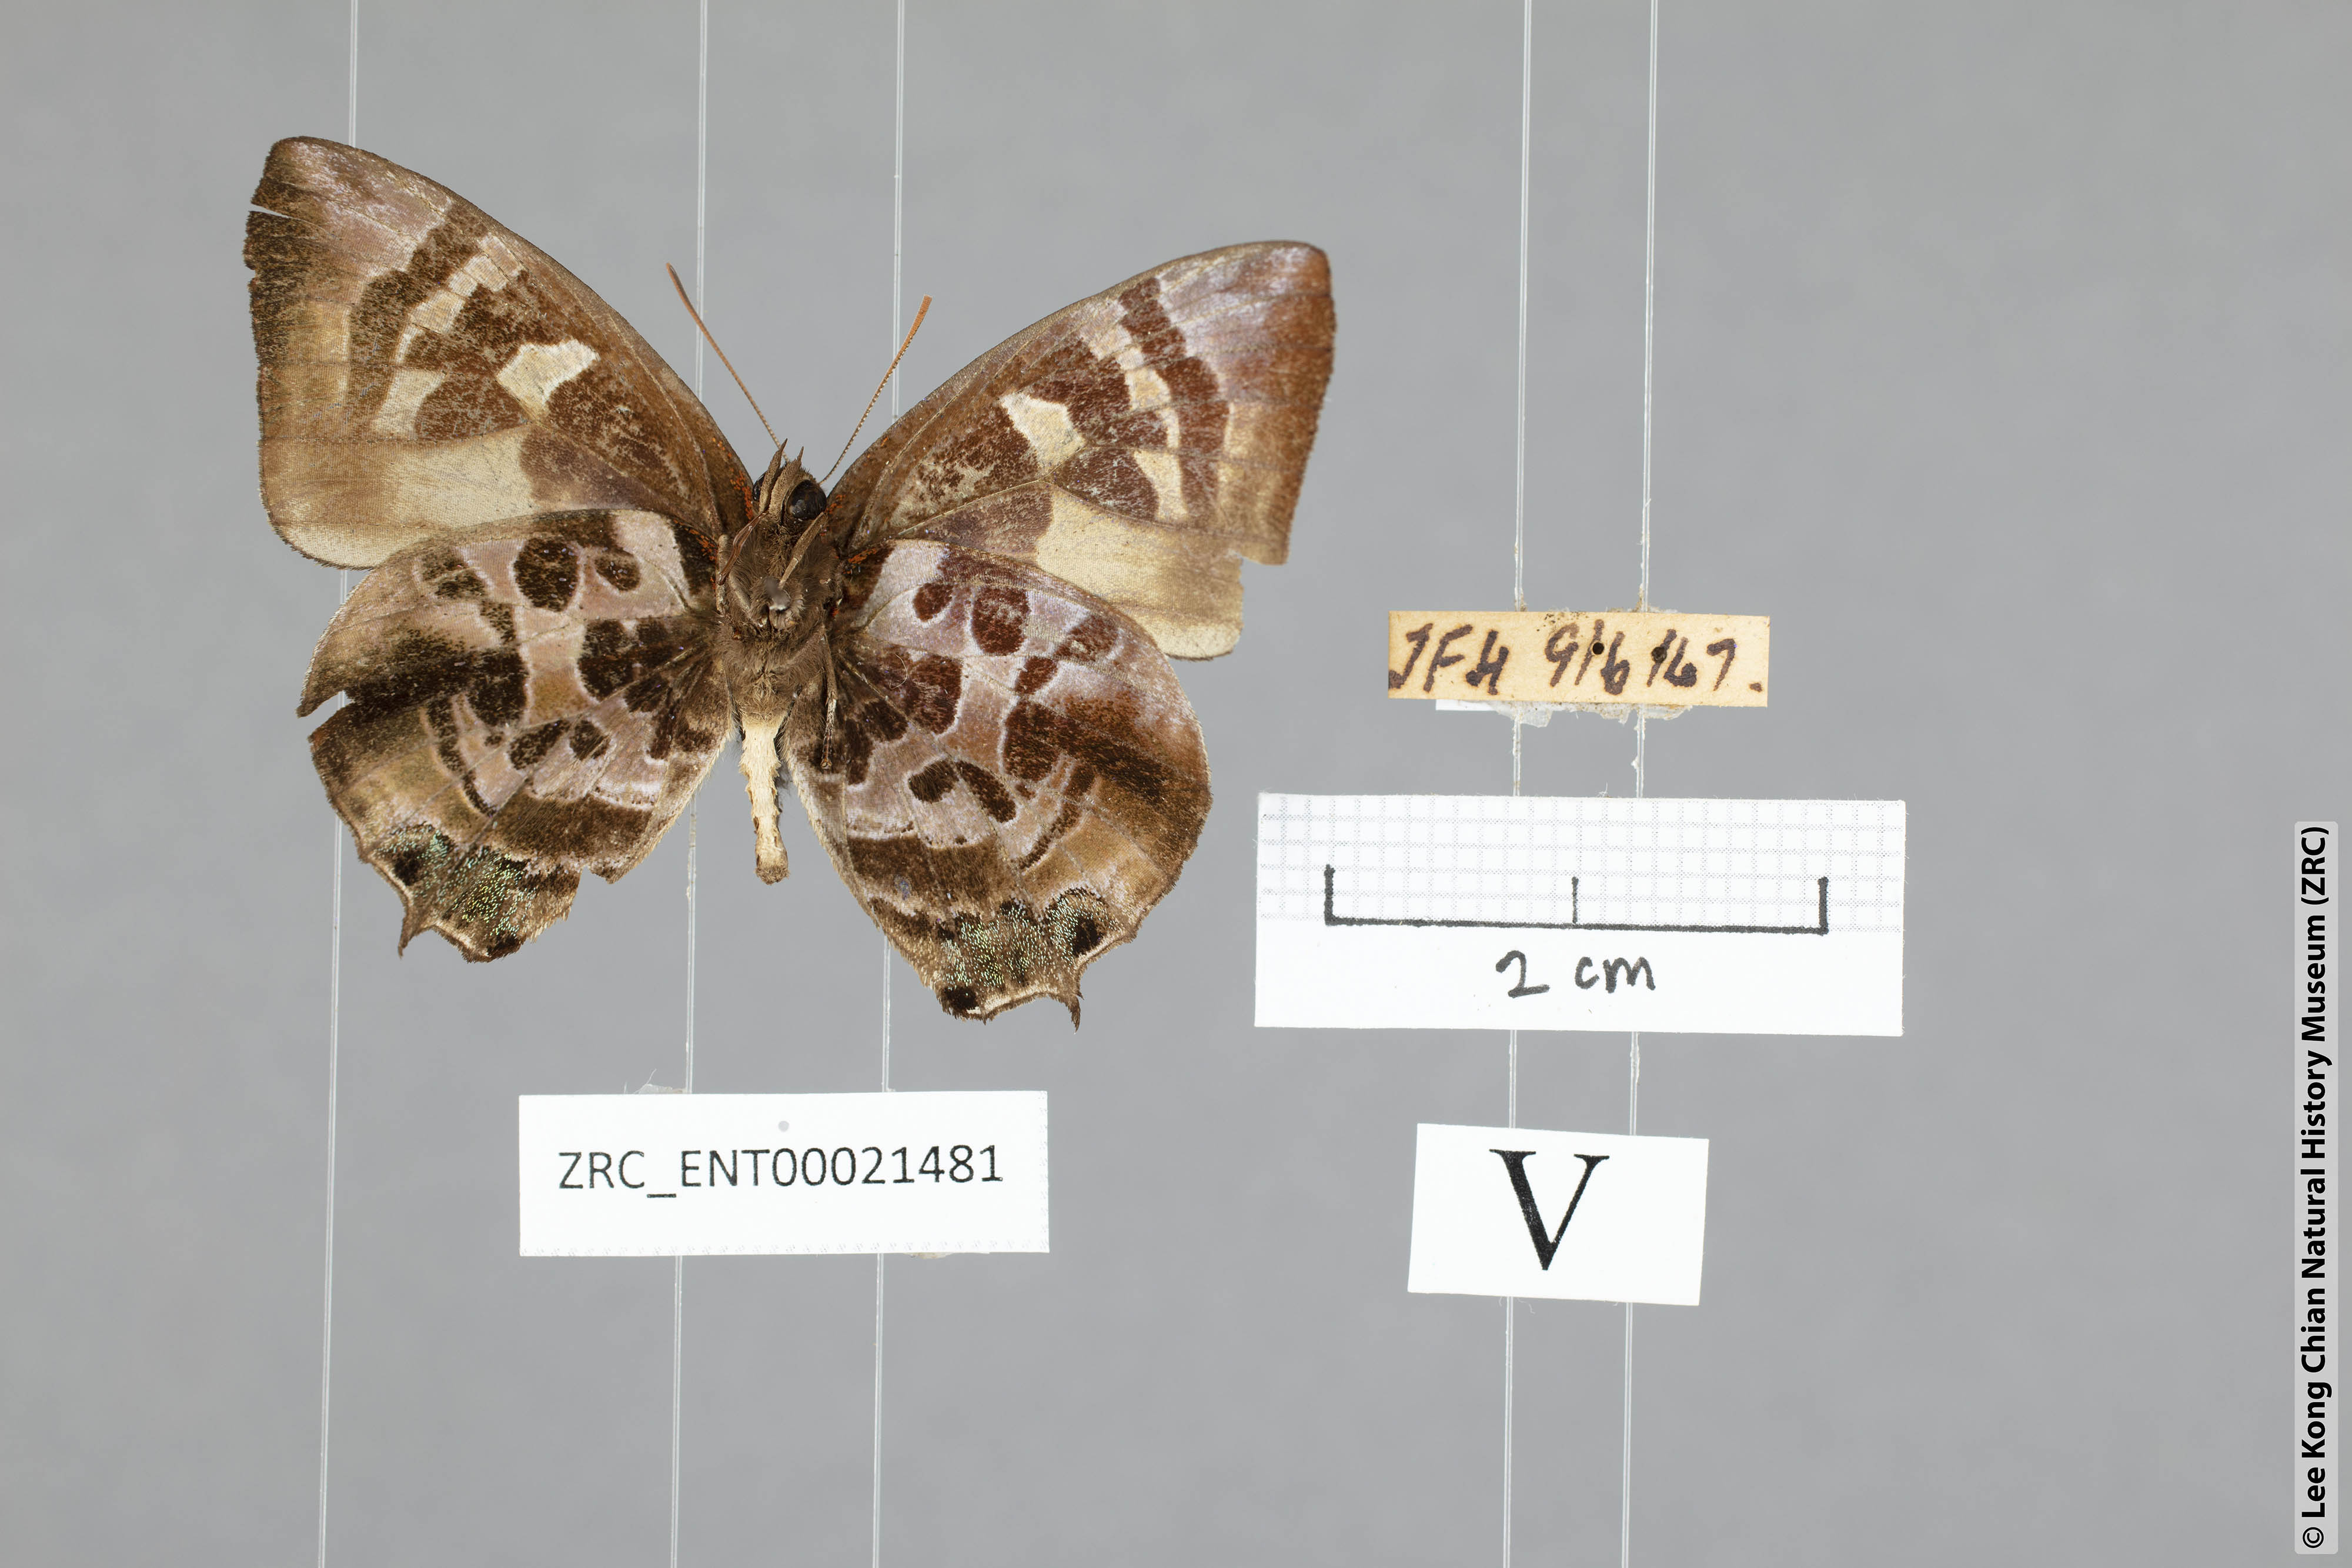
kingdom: Animalia
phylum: Arthropoda
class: Insecta
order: Lepidoptera
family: Lycaenidae
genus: Flos
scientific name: Flos
